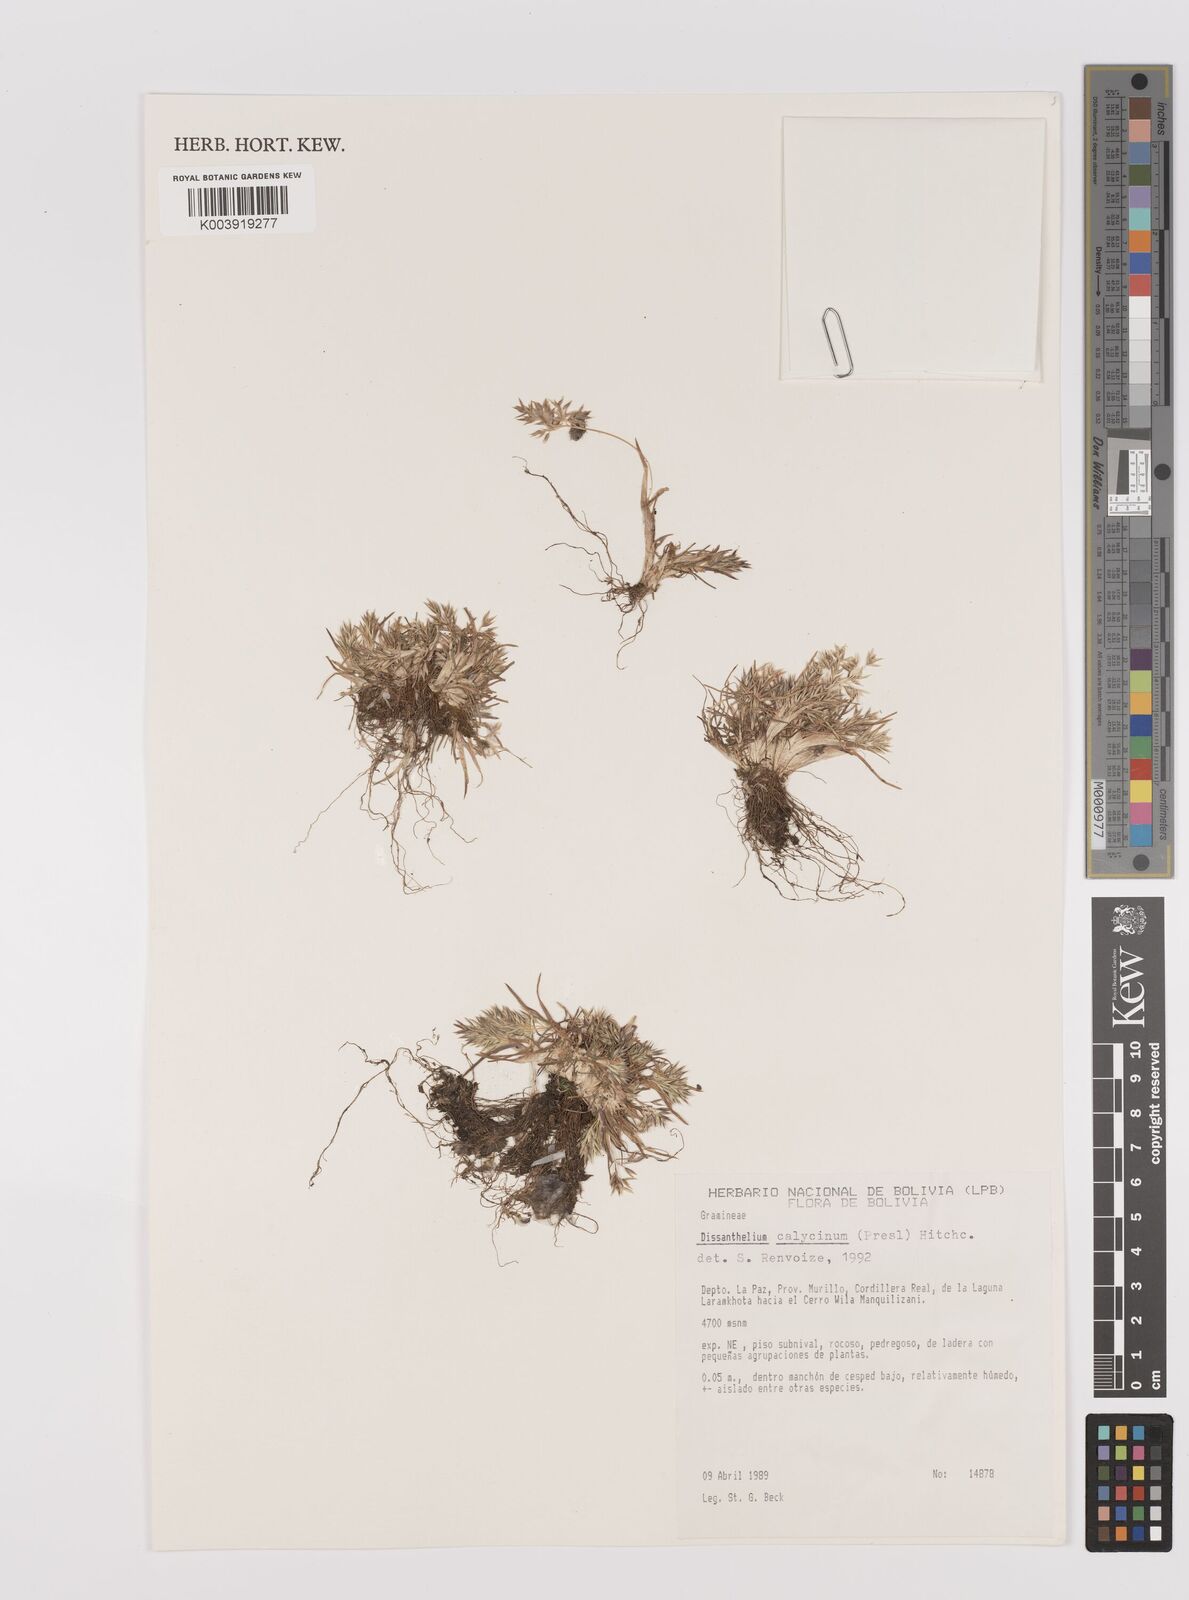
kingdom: Plantae
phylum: Tracheophyta
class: Liliopsida
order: Poales
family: Poaceae
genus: Poa
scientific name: Poa calycina
